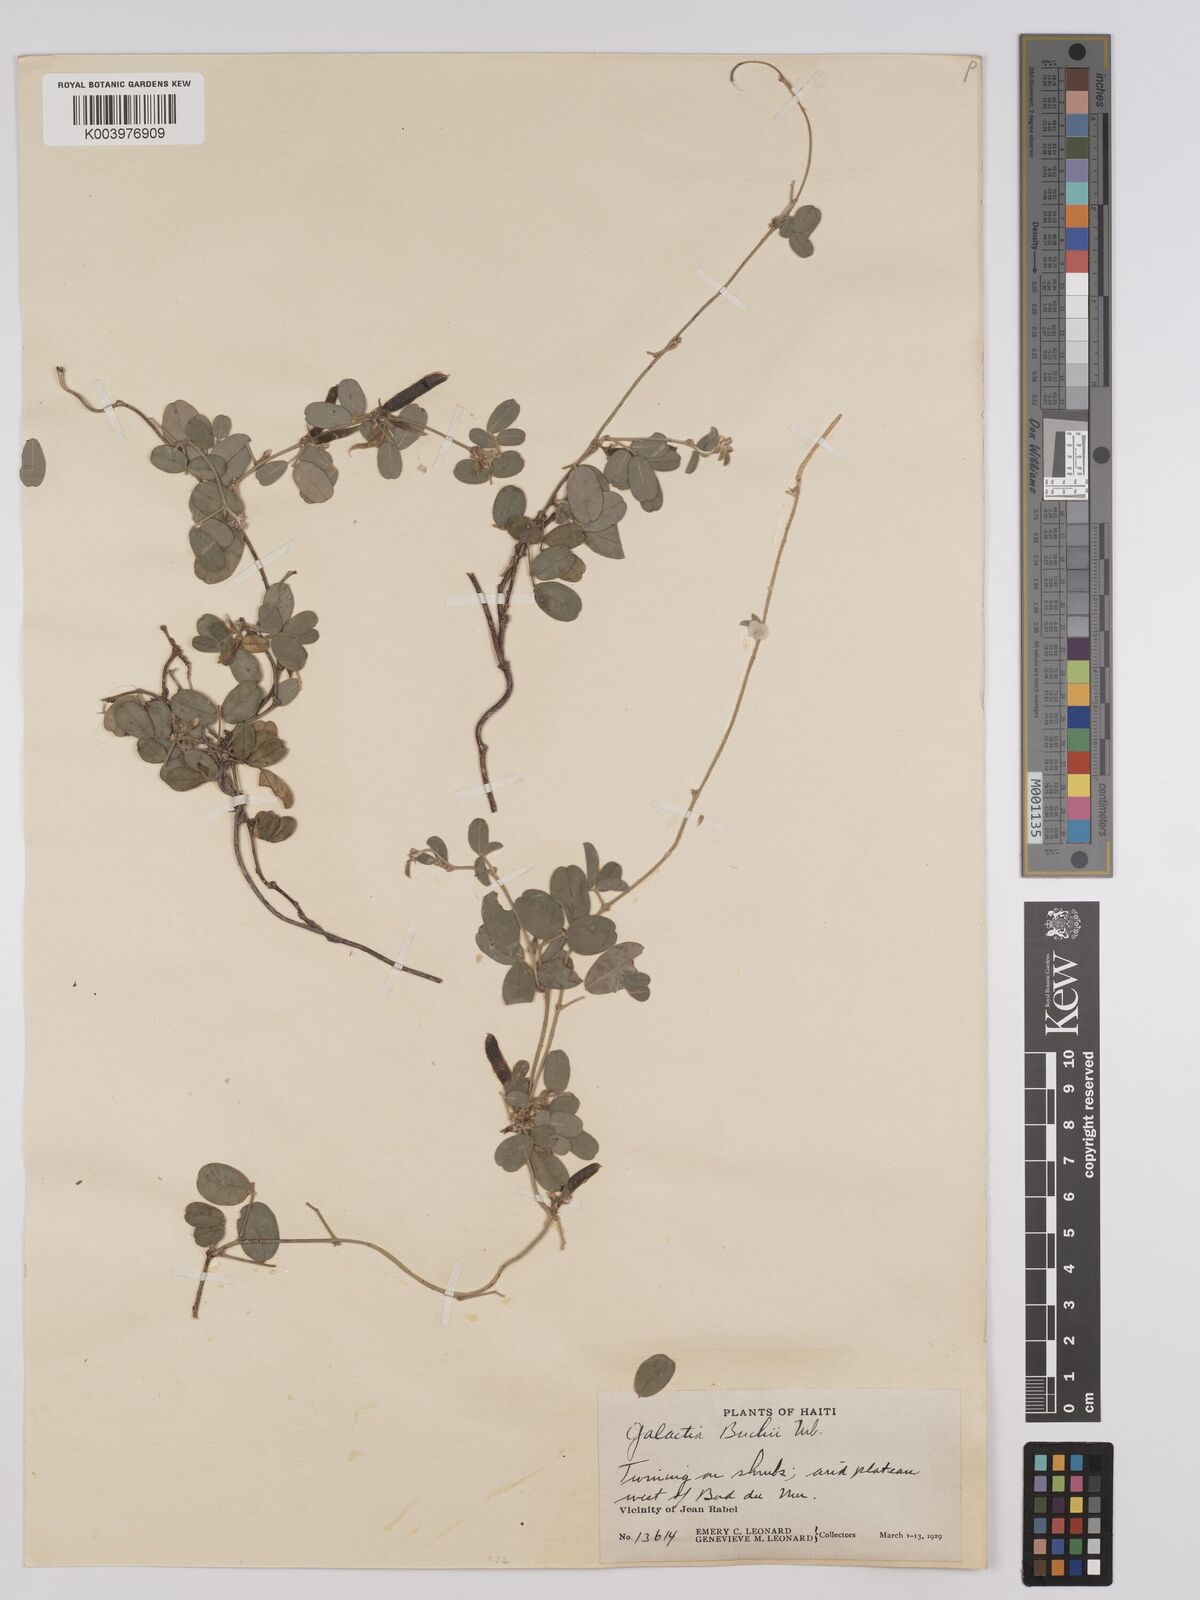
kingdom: Plantae
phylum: Tracheophyta
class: Magnoliopsida
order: Fabales
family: Fabaceae
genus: Galactia
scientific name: Galactia buchii
